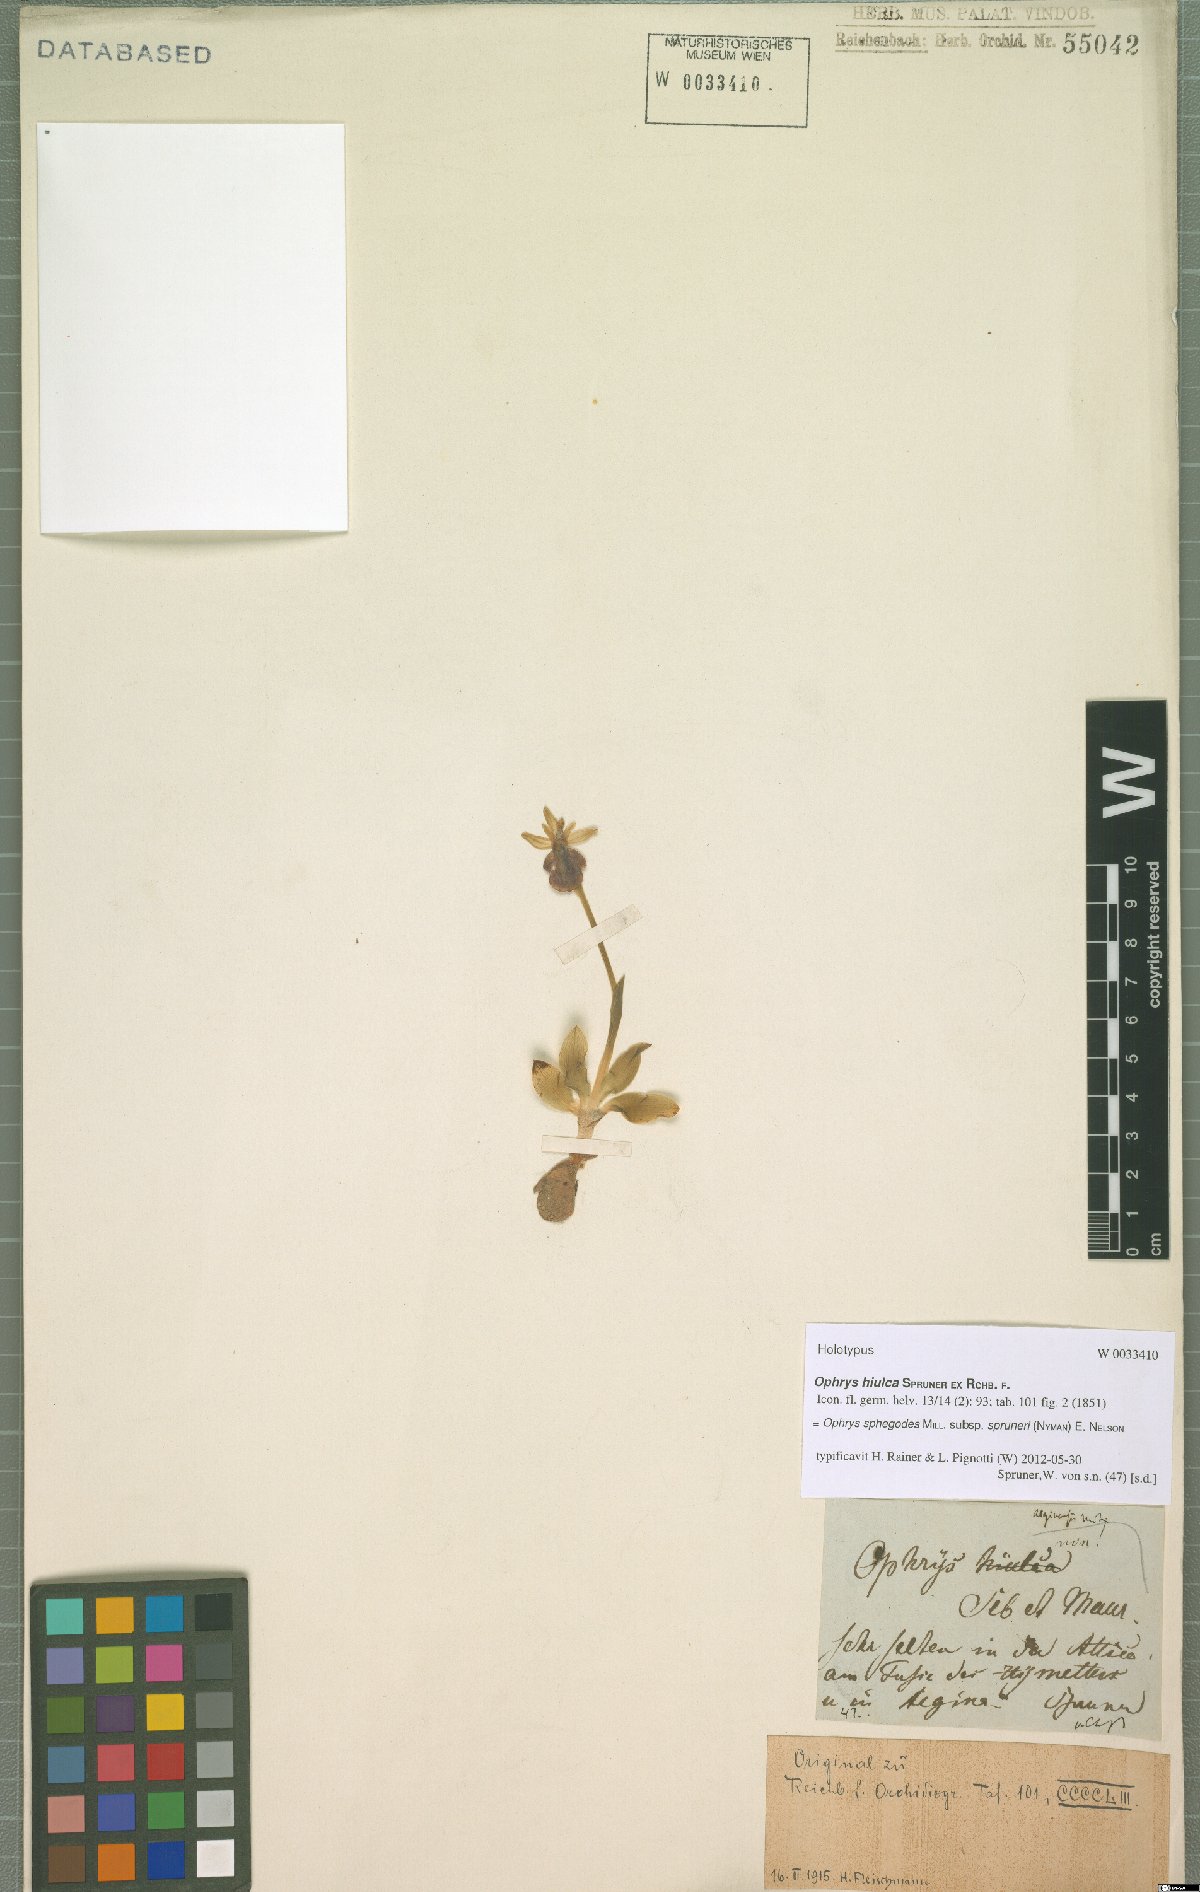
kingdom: Plantae
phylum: Tracheophyta
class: Liliopsida
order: Asparagales
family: Orchidaceae
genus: Ophrys
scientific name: Ophrys sphegodes
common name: Early spider-orchid
